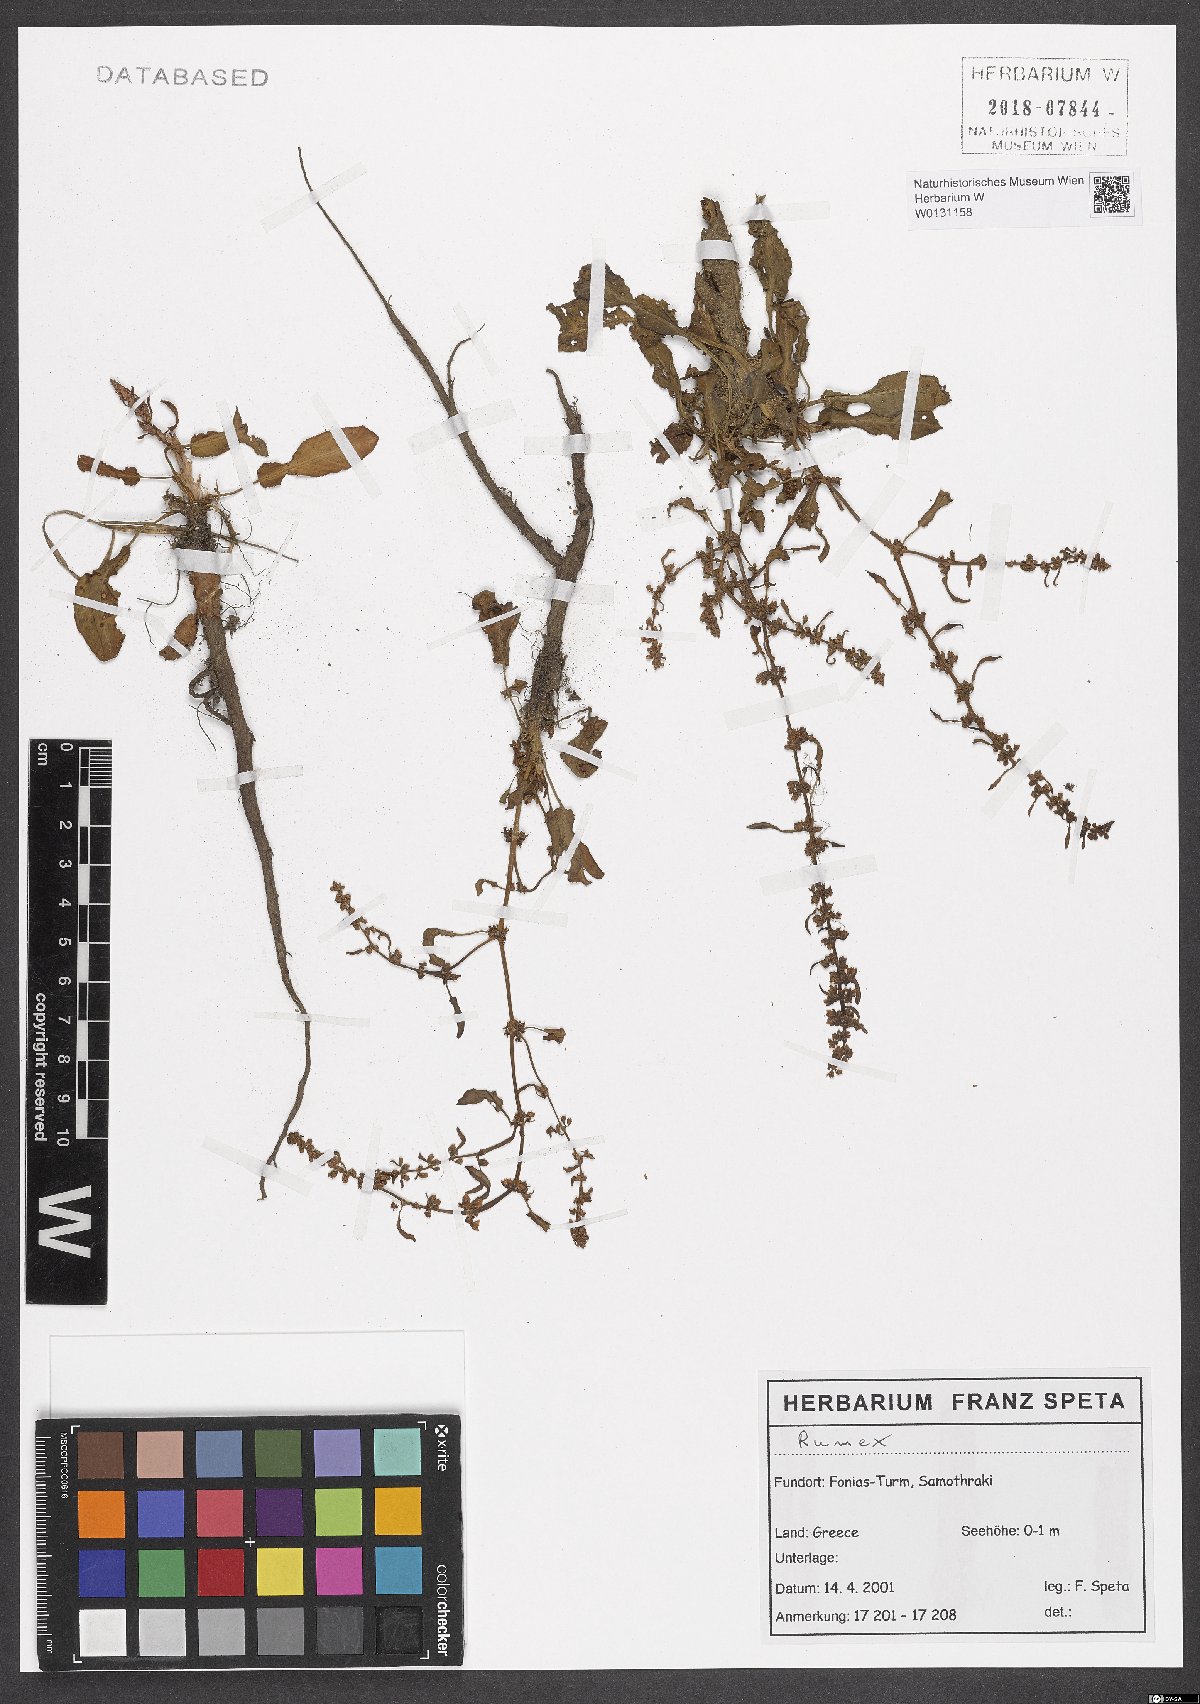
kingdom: Plantae
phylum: Tracheophyta
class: Magnoliopsida
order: Caryophyllales
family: Polygonaceae
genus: Rumex
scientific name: Rumex
